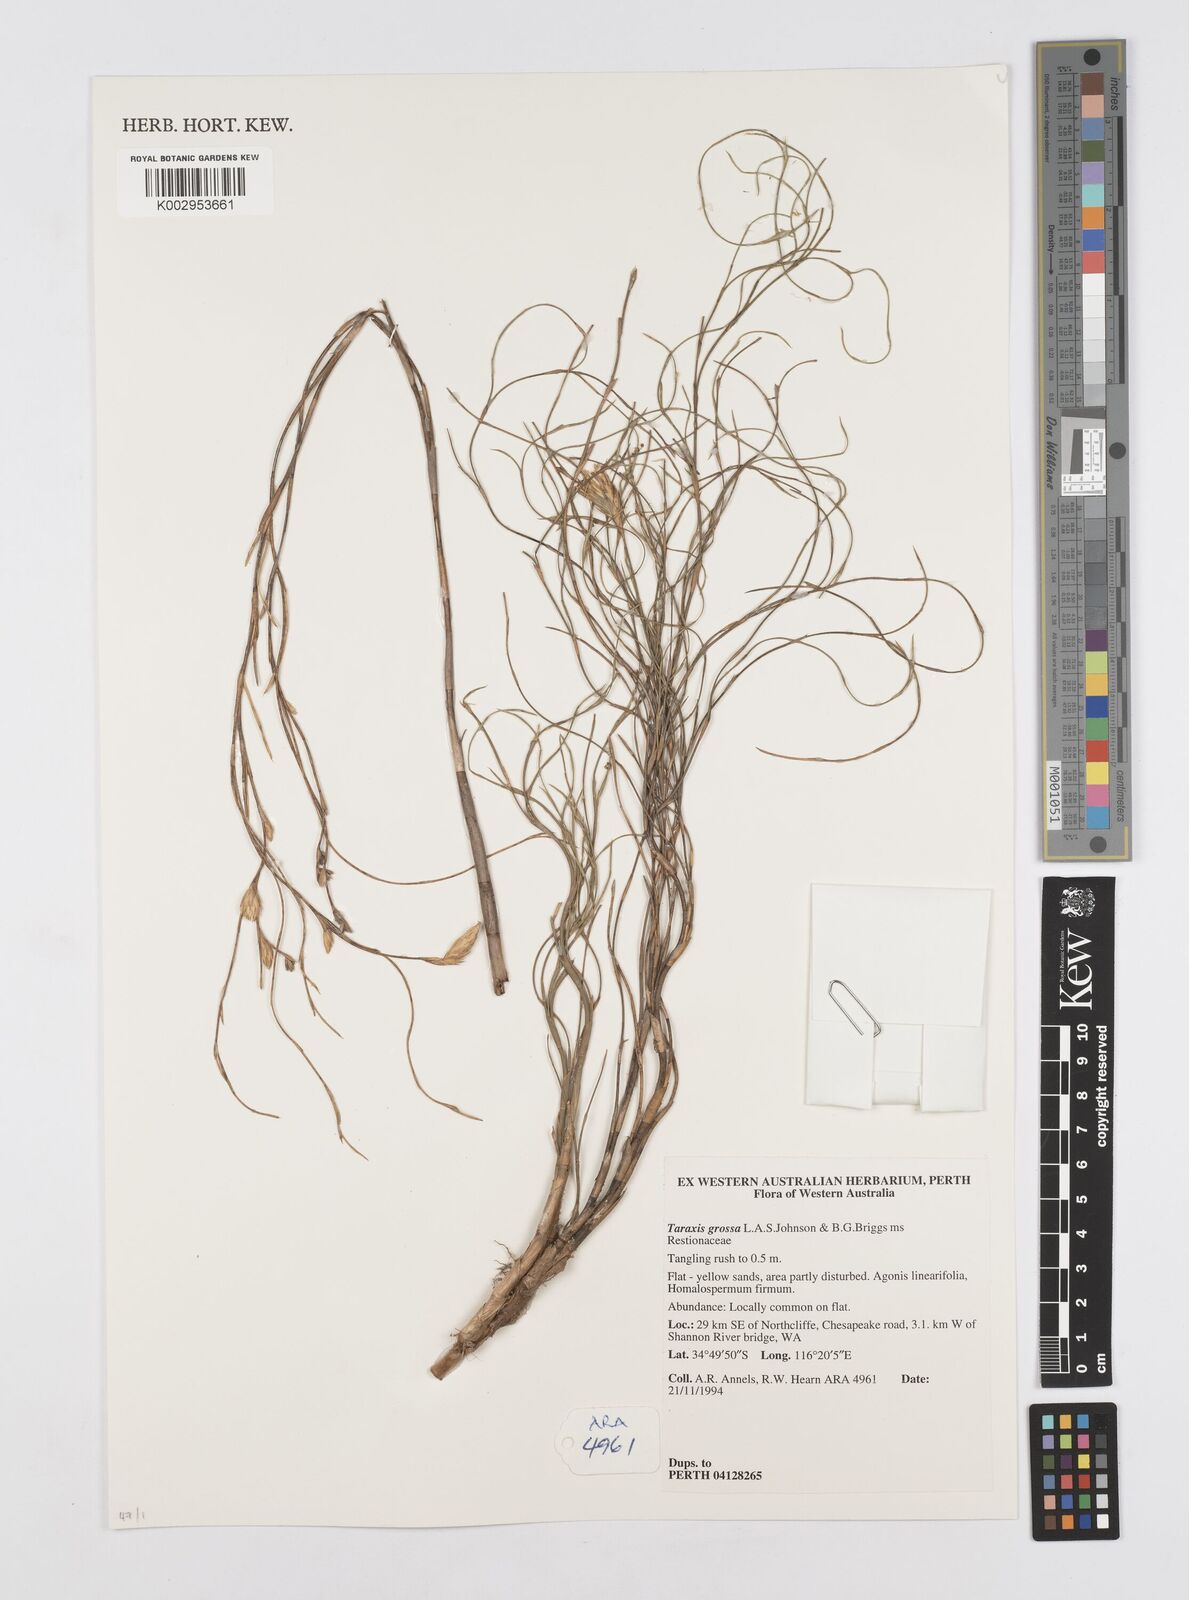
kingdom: Plantae
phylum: Tracheophyta
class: Liliopsida
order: Poales
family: Restionaceae
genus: Taraxis
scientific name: Taraxis grossa
